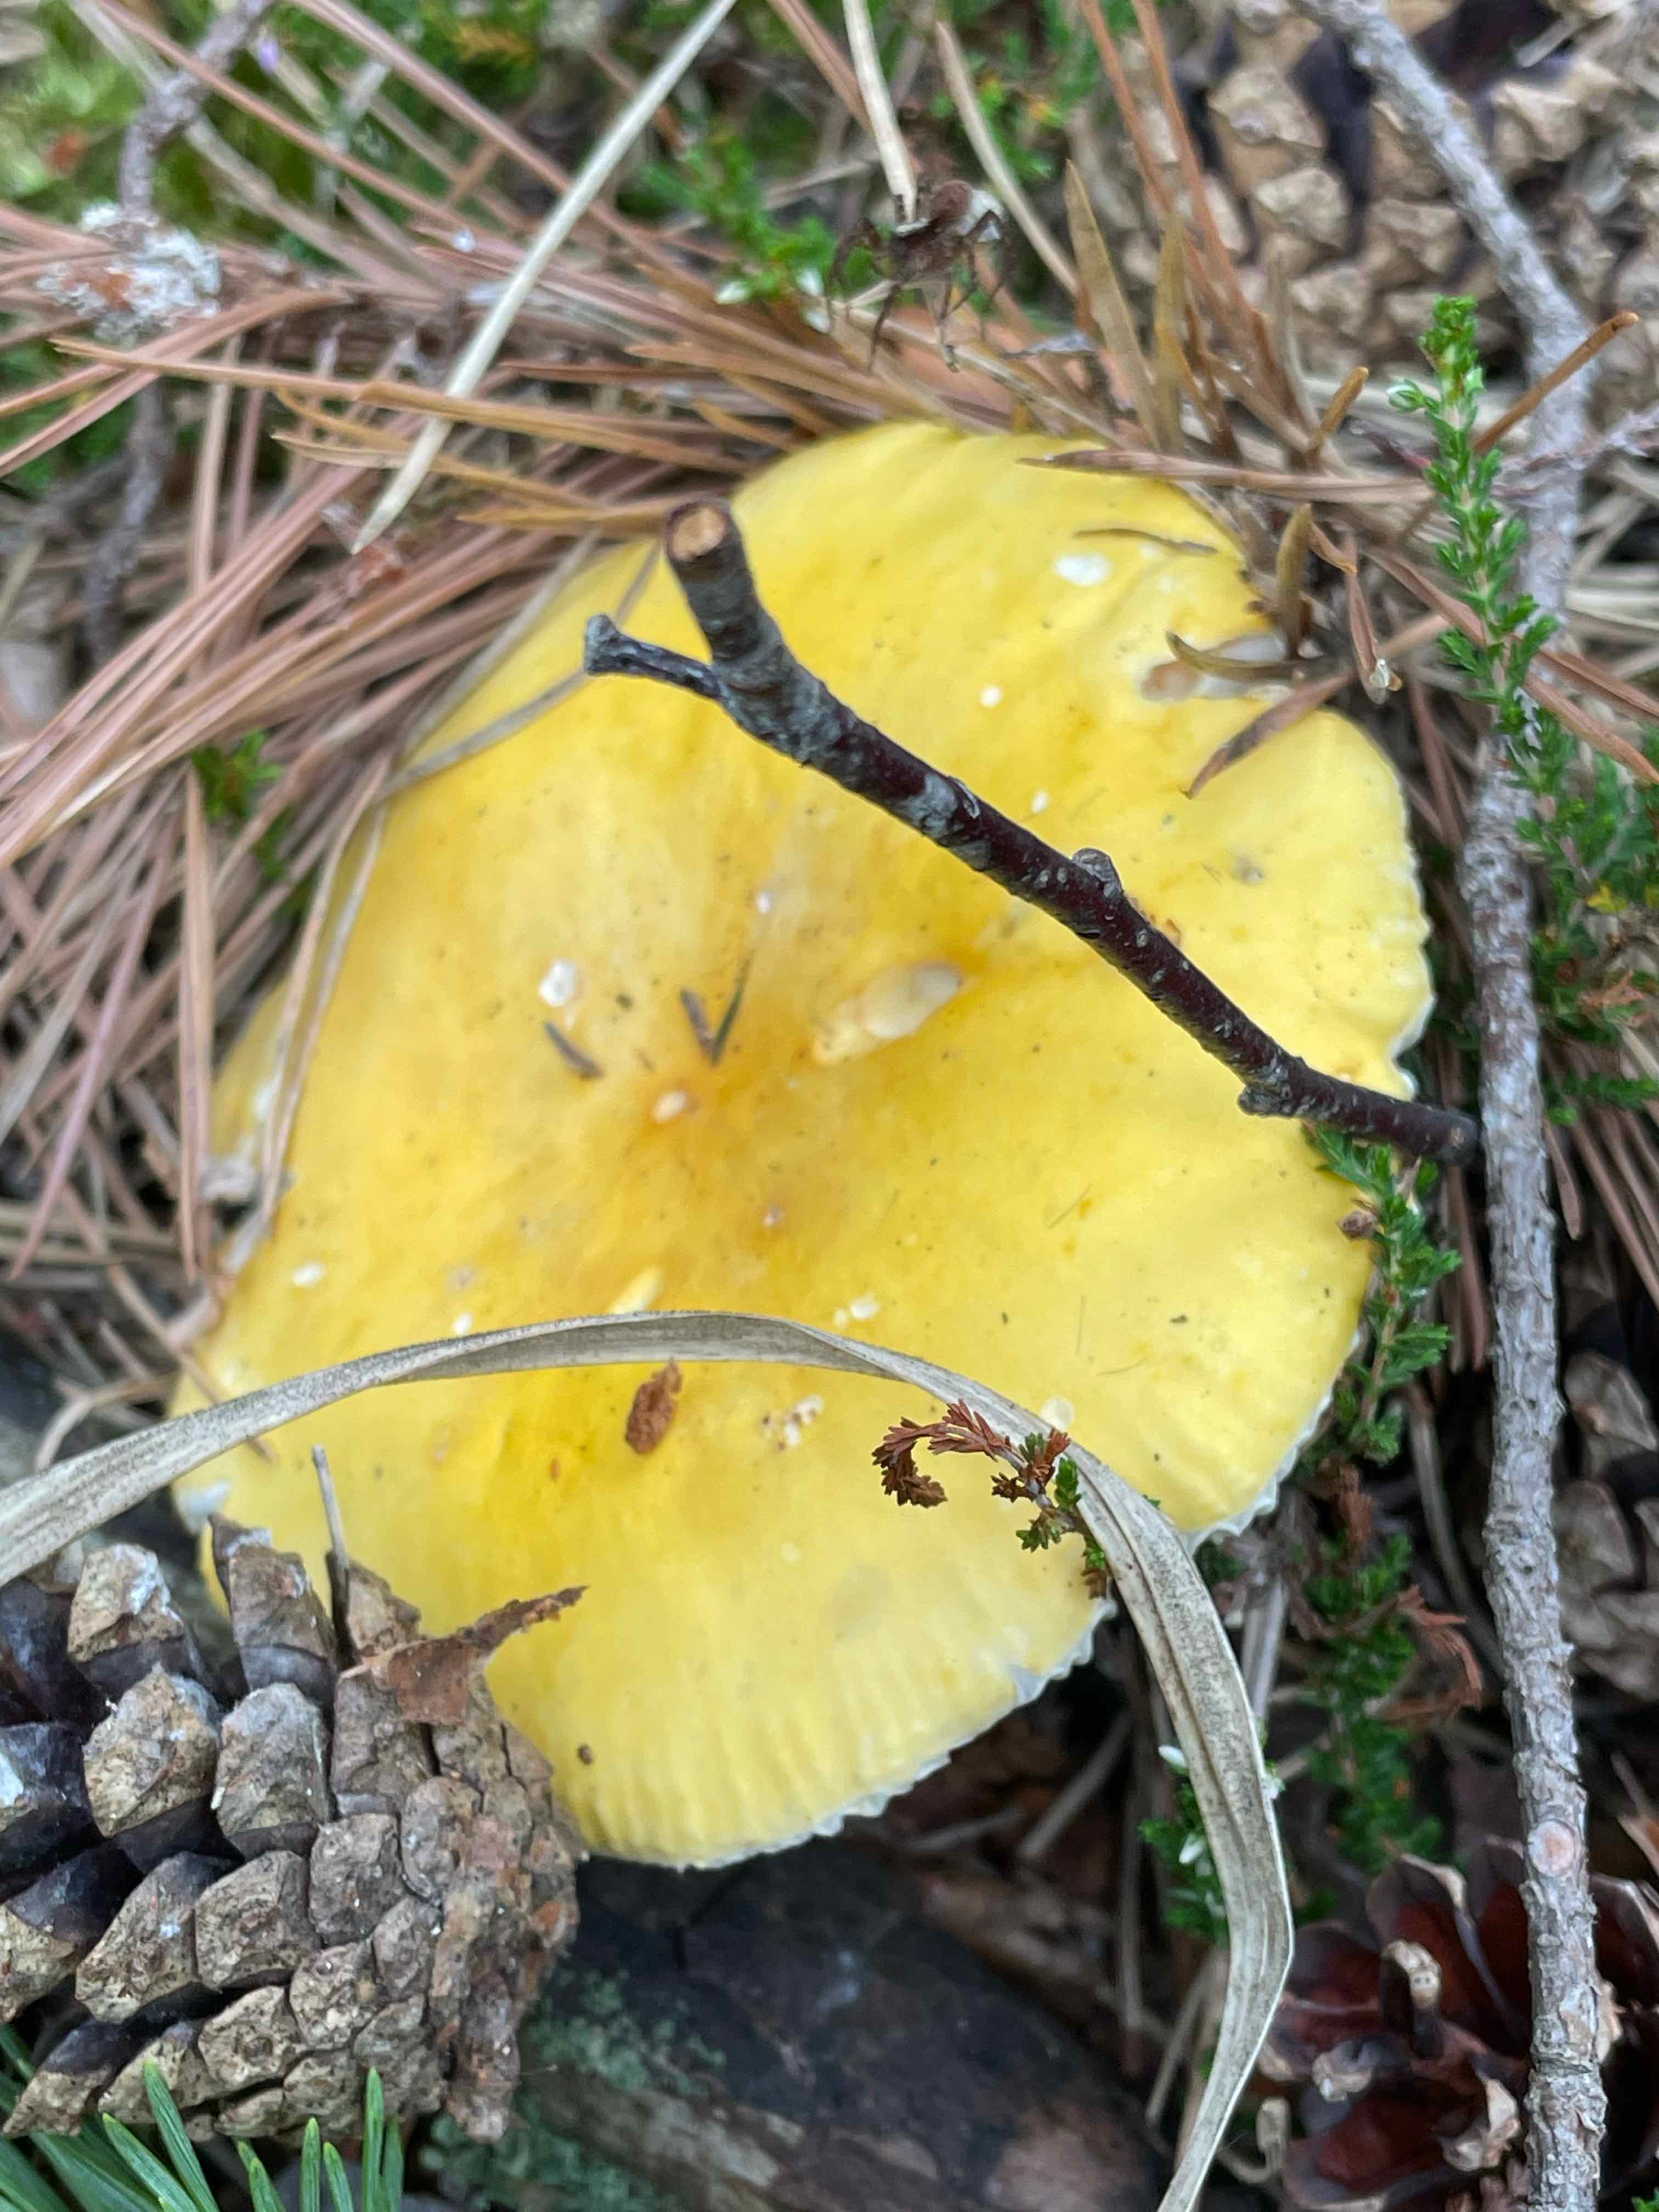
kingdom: Fungi
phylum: Basidiomycota
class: Agaricomycetes
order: Russulales
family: Russulaceae
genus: Russula
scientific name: Russula claroflava
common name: birke-skørhat
